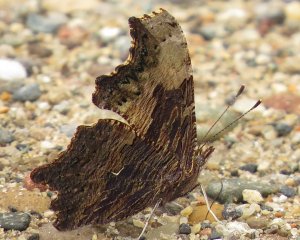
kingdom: Animalia
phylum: Arthropoda
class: Insecta
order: Lepidoptera
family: Nymphalidae
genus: Polygonia
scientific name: Polygonia progne
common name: Gray Comma
